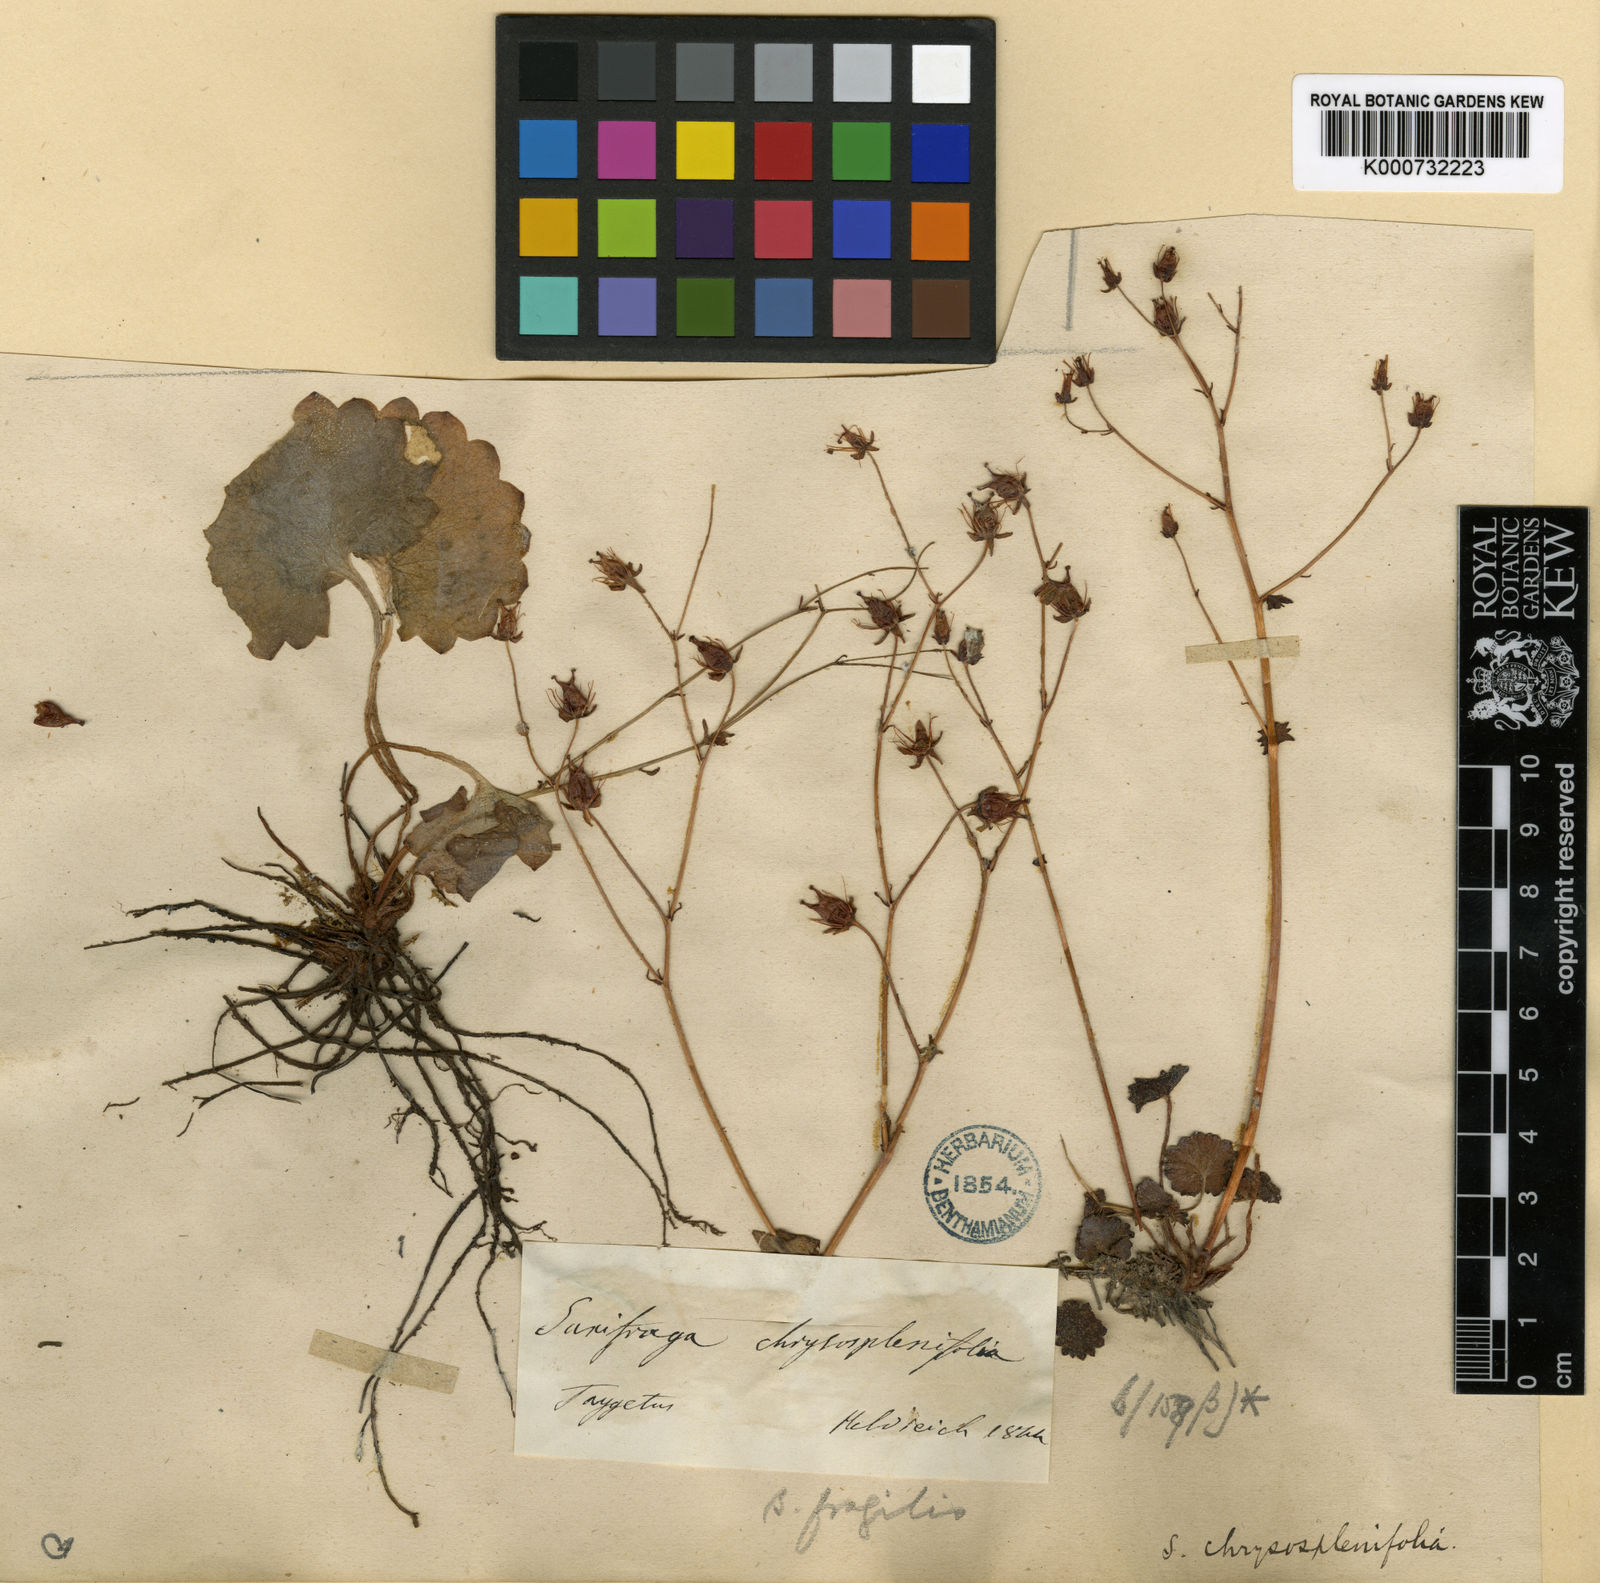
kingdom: Plantae
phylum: Tracheophyta
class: Magnoliopsida
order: Saxifragales
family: Saxifragaceae
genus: Saxifraga
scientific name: Saxifraga rotundifolia
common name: Round-leaved saxifrage
